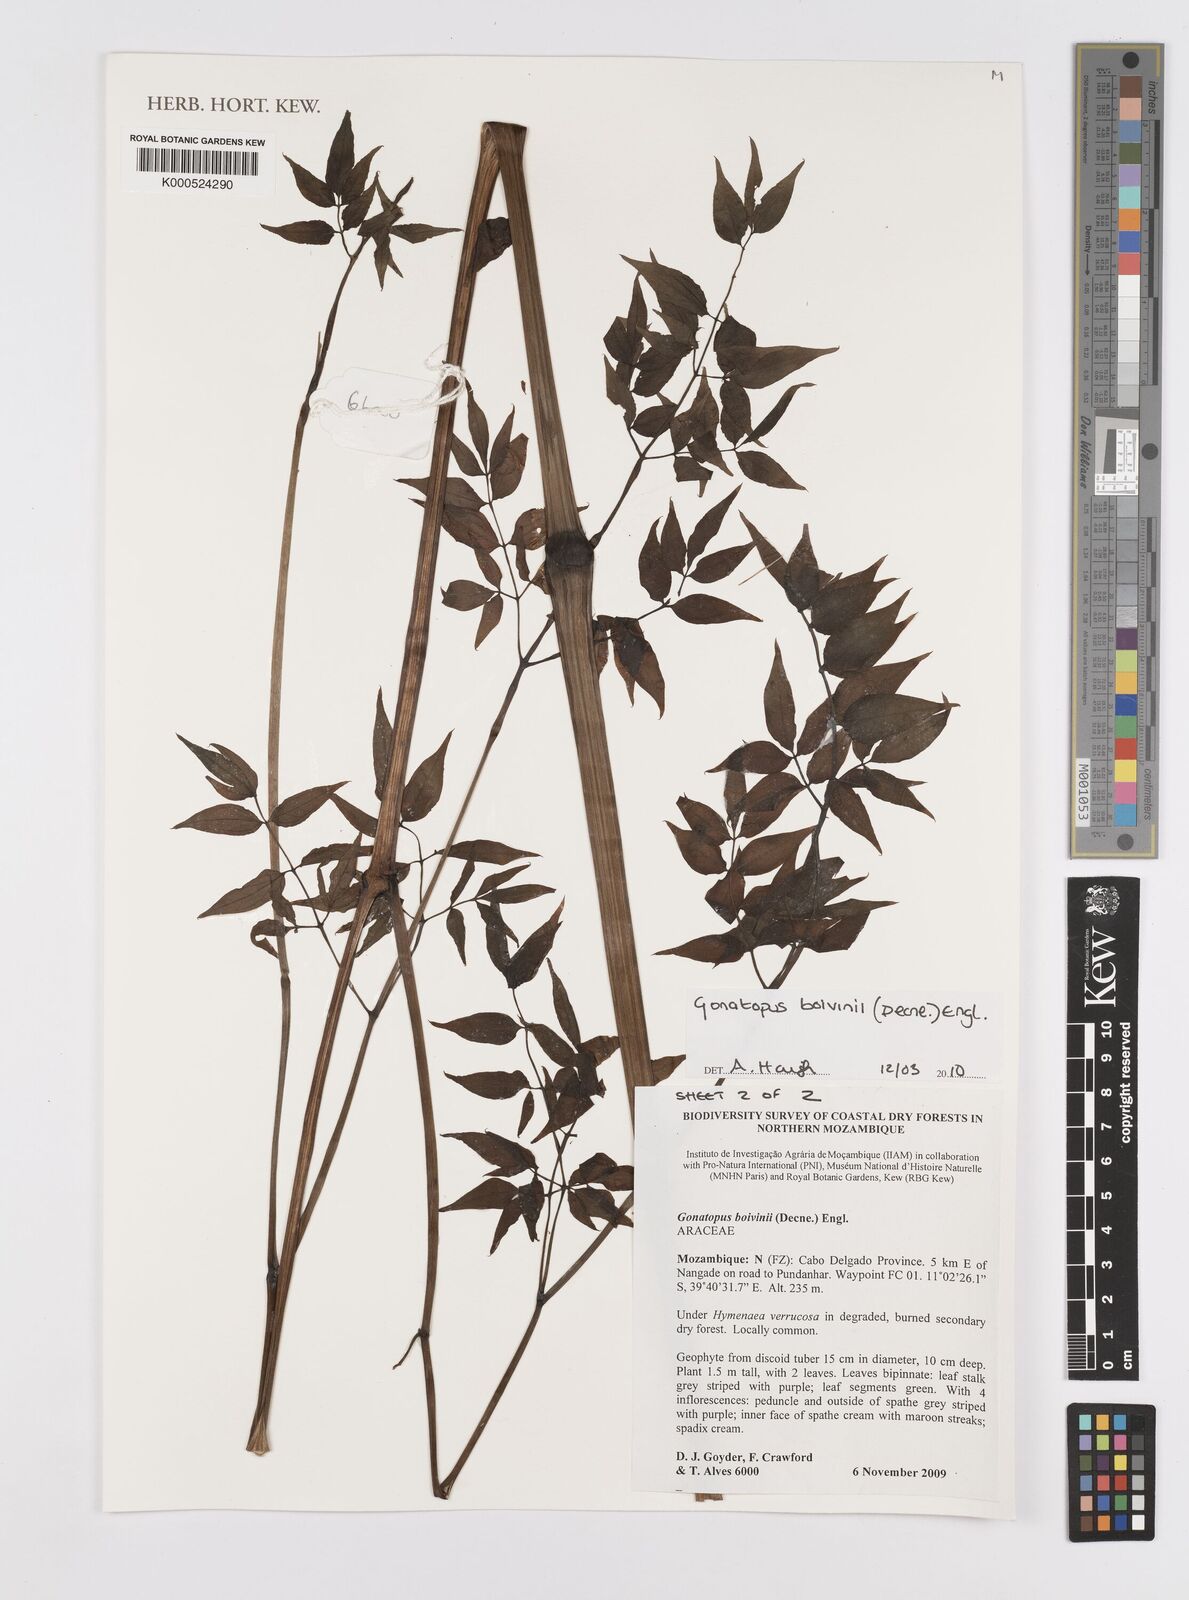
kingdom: Plantae
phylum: Tracheophyta
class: Liliopsida
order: Alismatales
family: Araceae
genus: Gonatopus
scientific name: Gonatopus boivinii
